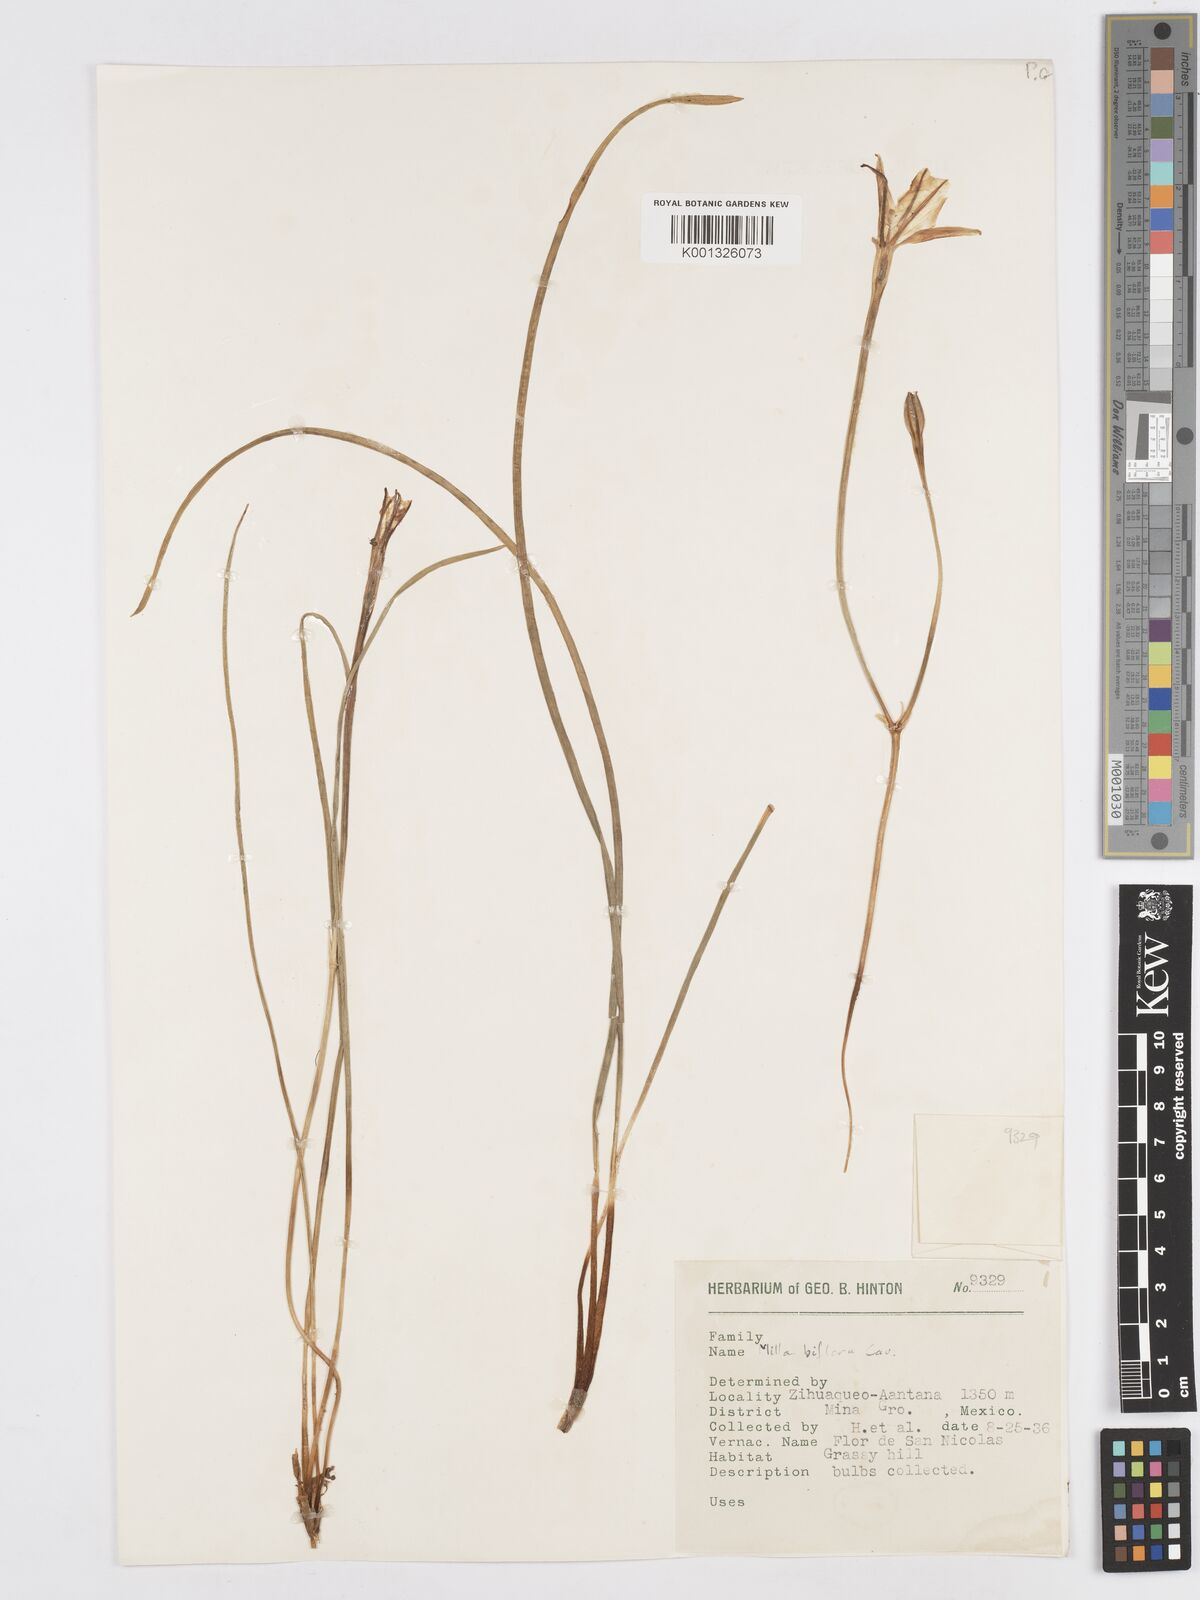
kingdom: Plantae
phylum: Tracheophyta
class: Liliopsida
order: Asparagales
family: Asparagaceae
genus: Milla
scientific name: Milla biflora
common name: Mexican-star
